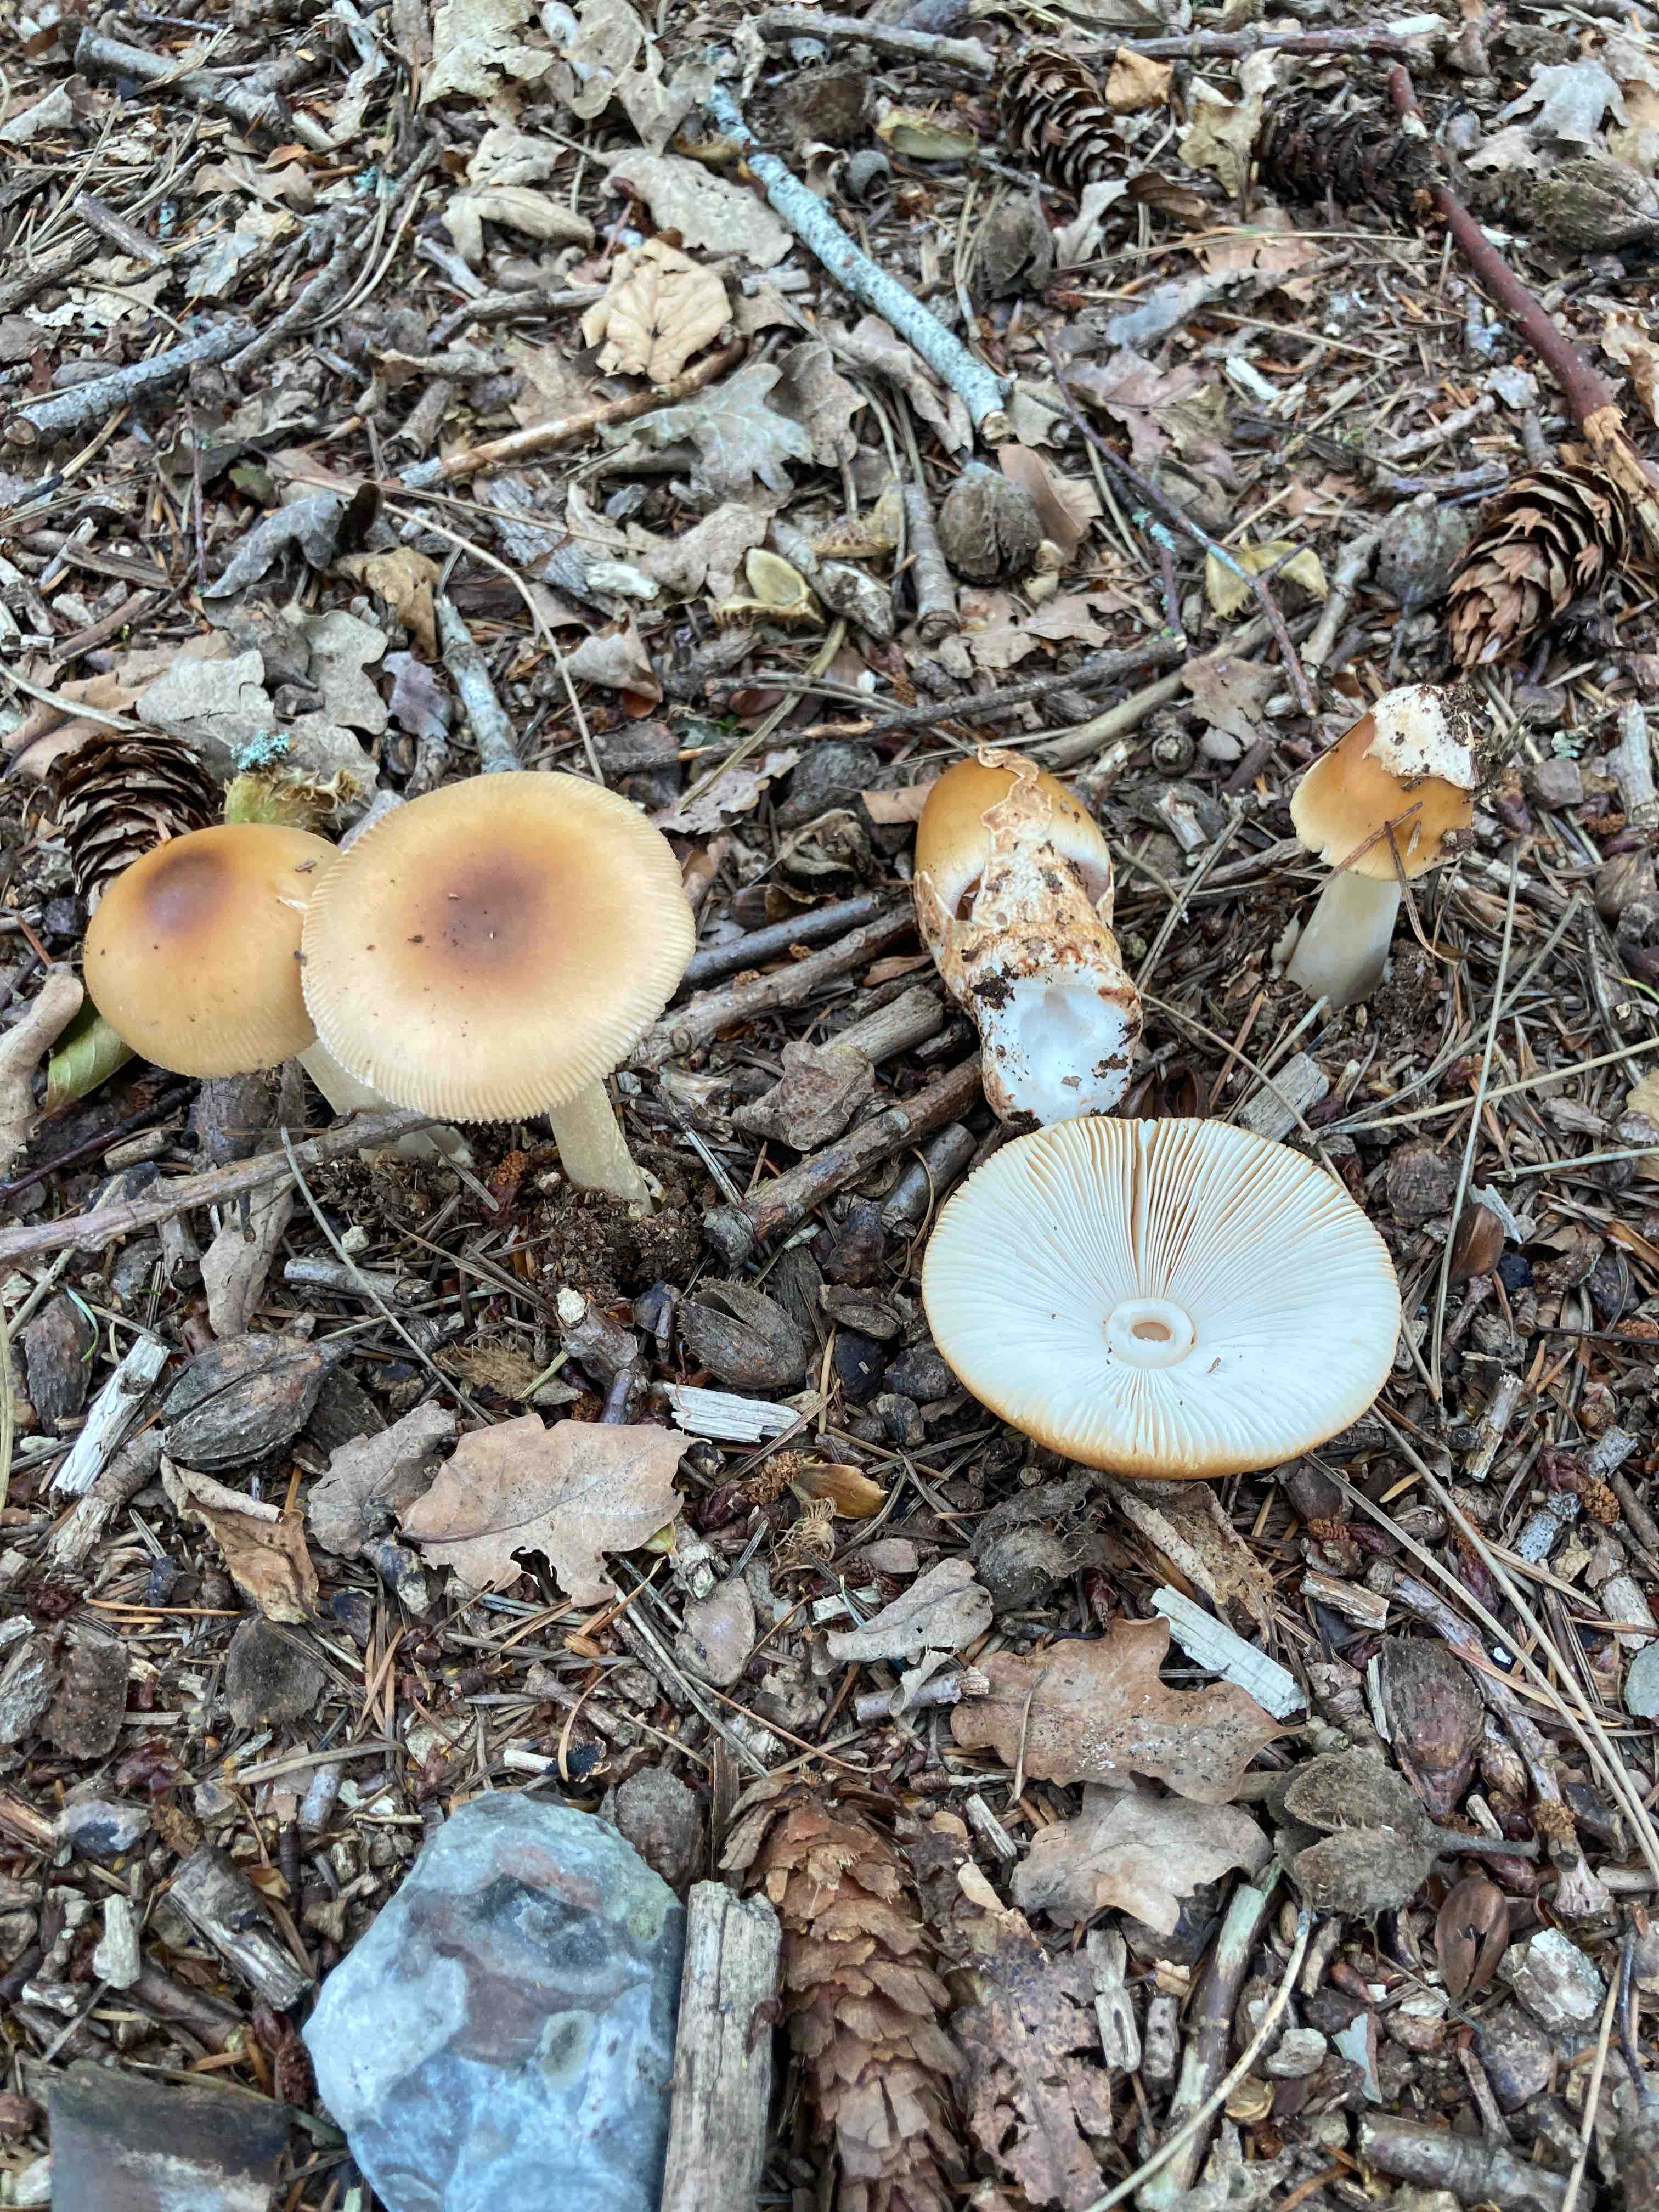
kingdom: Fungi
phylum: Basidiomycota
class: Agaricomycetes
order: Agaricales
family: Amanitaceae
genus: Amanita
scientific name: Amanita fulva
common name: brun kam-fluesvamp
